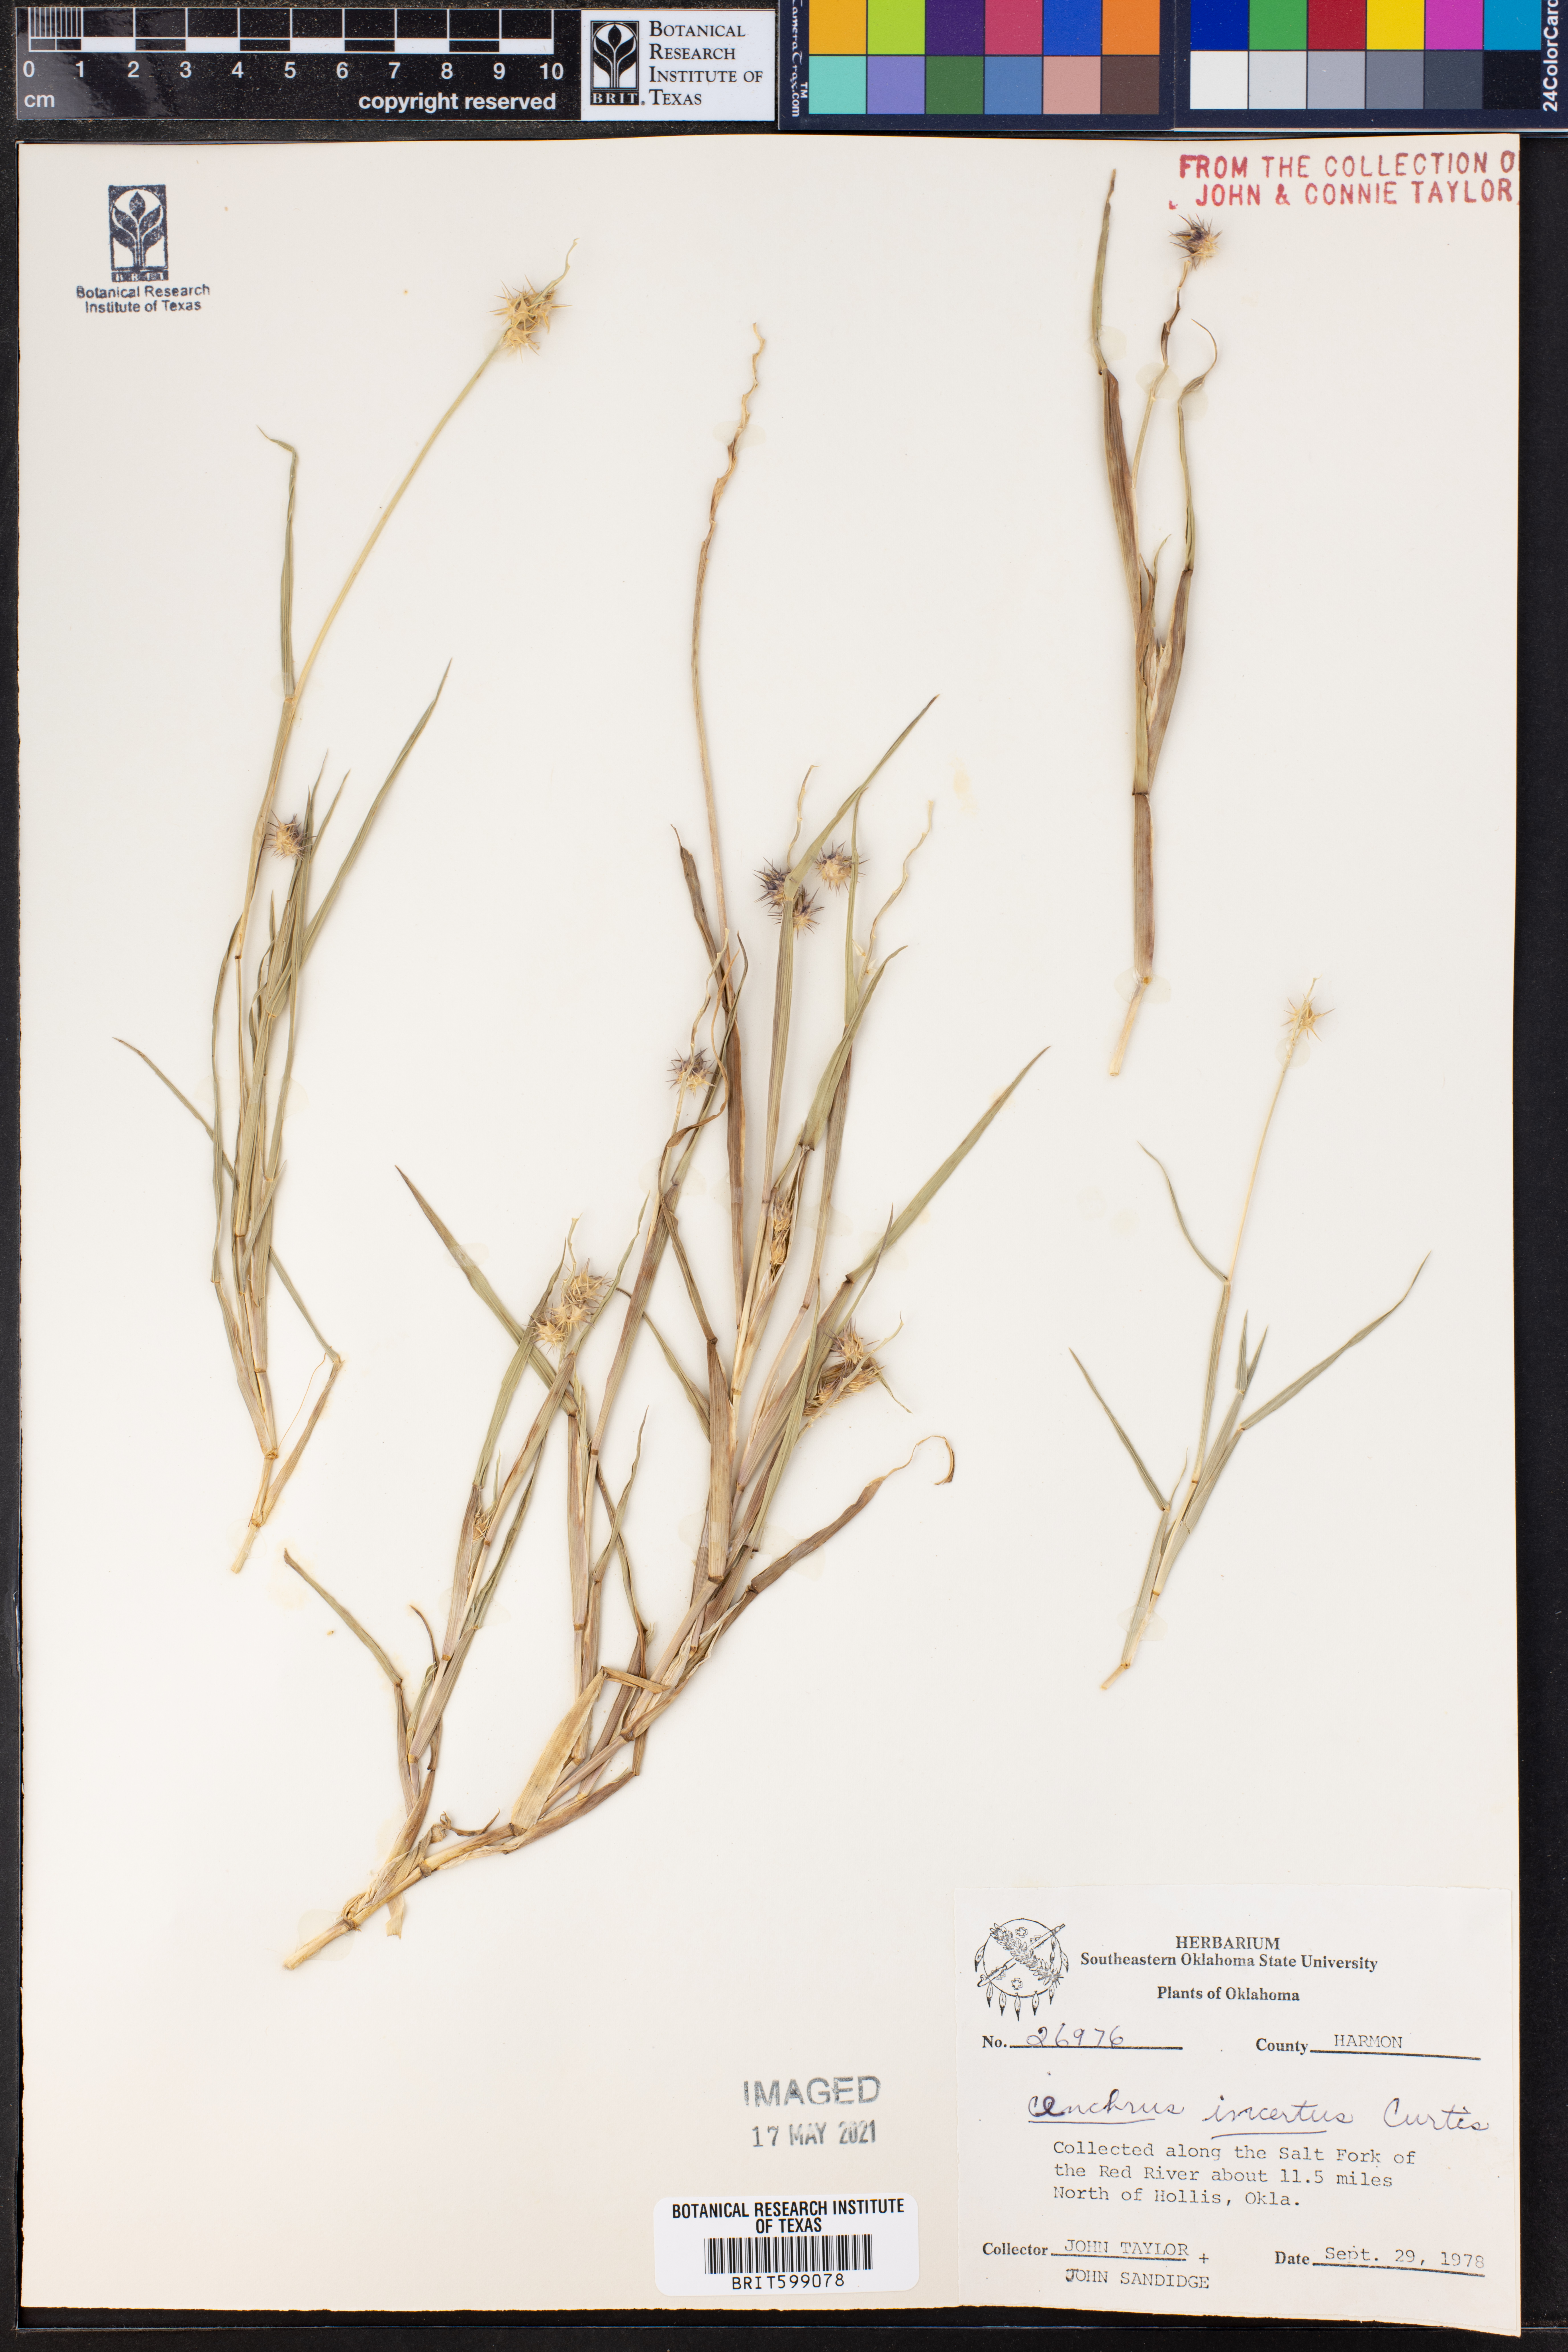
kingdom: Plantae
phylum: Tracheophyta
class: Liliopsida
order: Poales
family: Poaceae
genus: Cenchrus
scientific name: Cenchrus spinifex
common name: Coast sandbur
